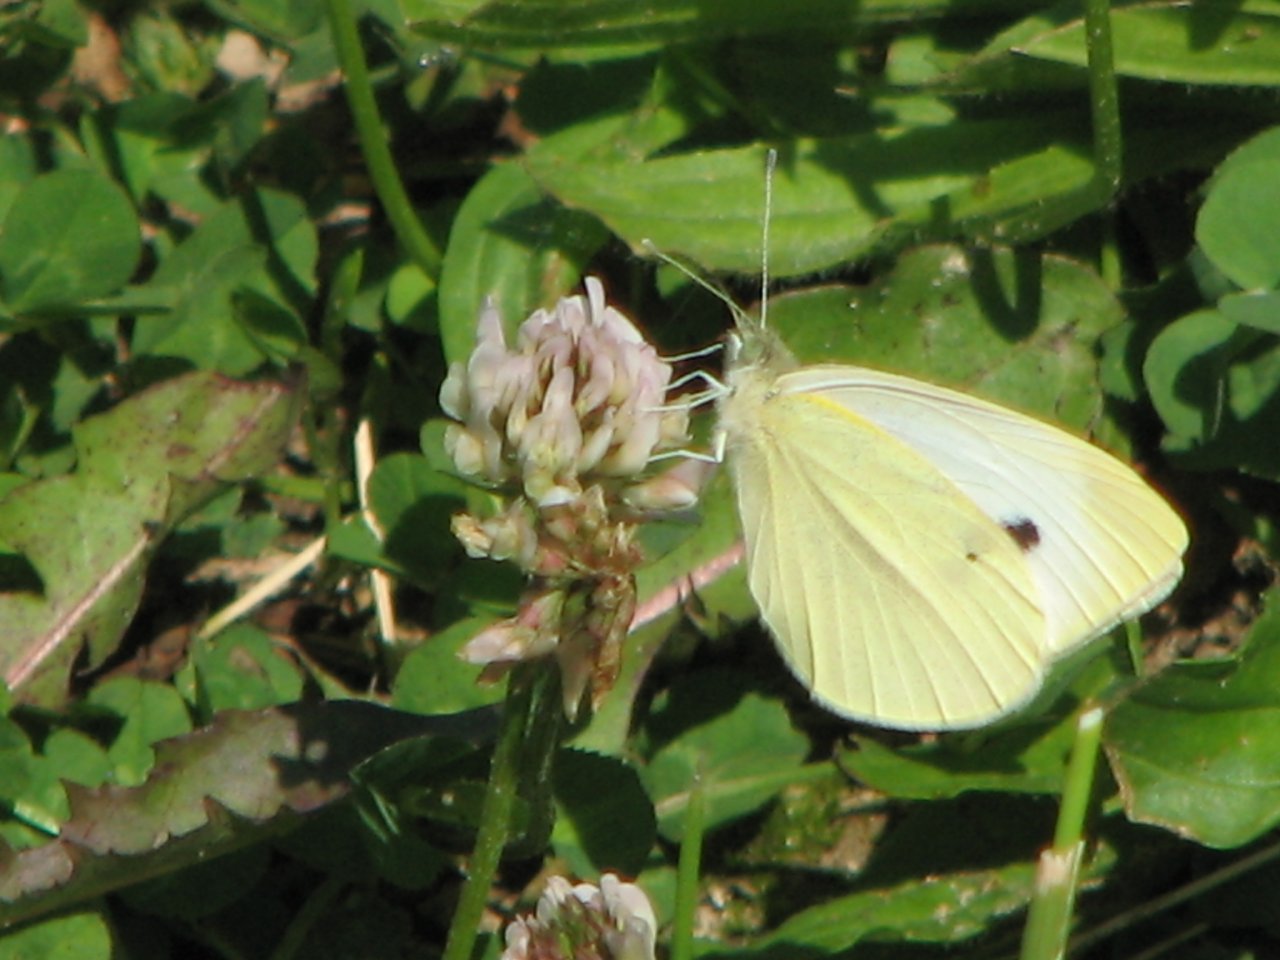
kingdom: Animalia
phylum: Arthropoda
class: Insecta
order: Lepidoptera
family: Pieridae
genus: Pieris
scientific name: Pieris rapae
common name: Cabbage White
